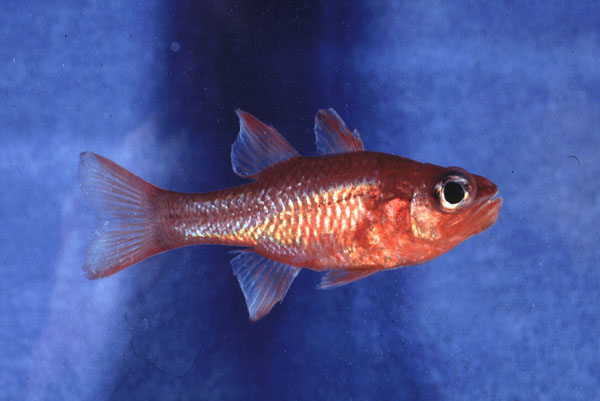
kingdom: Animalia
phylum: Chordata
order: Perciformes
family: Apogonidae
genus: Apogon
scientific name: Apogon imberbis
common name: Cardinal fish
